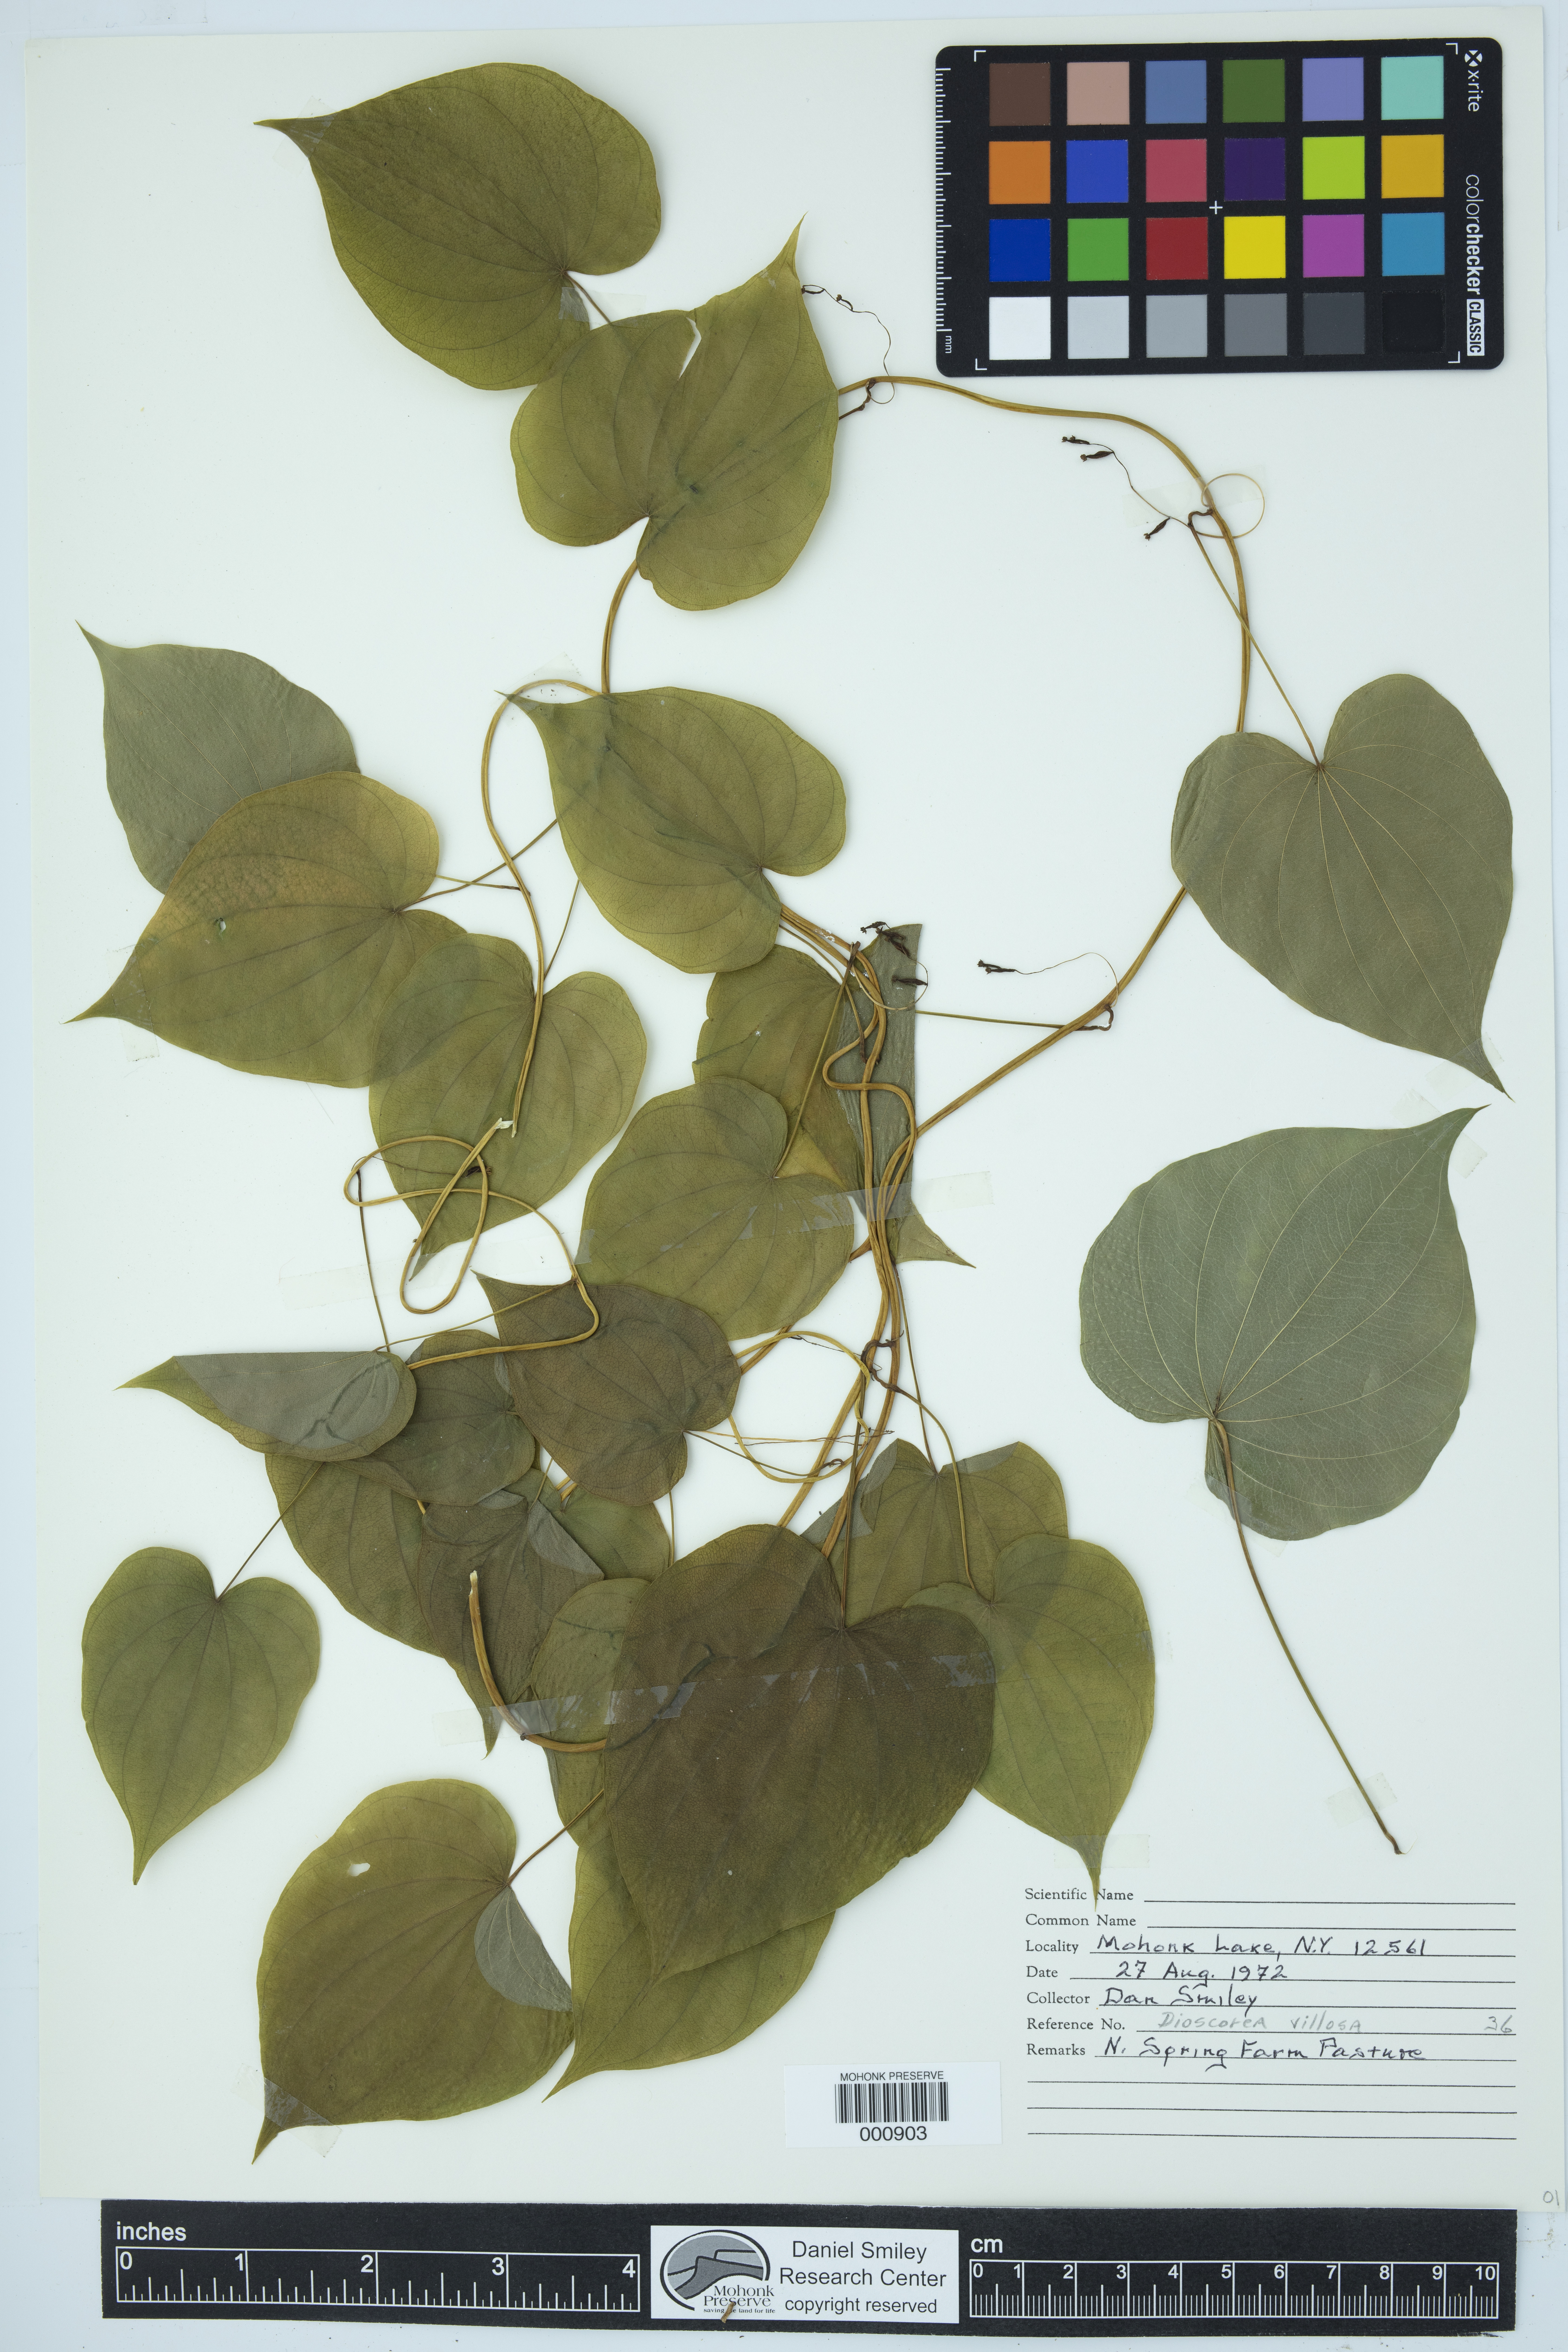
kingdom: Plantae
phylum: Tracheophyta
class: Liliopsida
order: Dioscoreales
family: Dioscoreaceae
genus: Dioscorea
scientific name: Dioscorea villosa
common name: Wild yam
